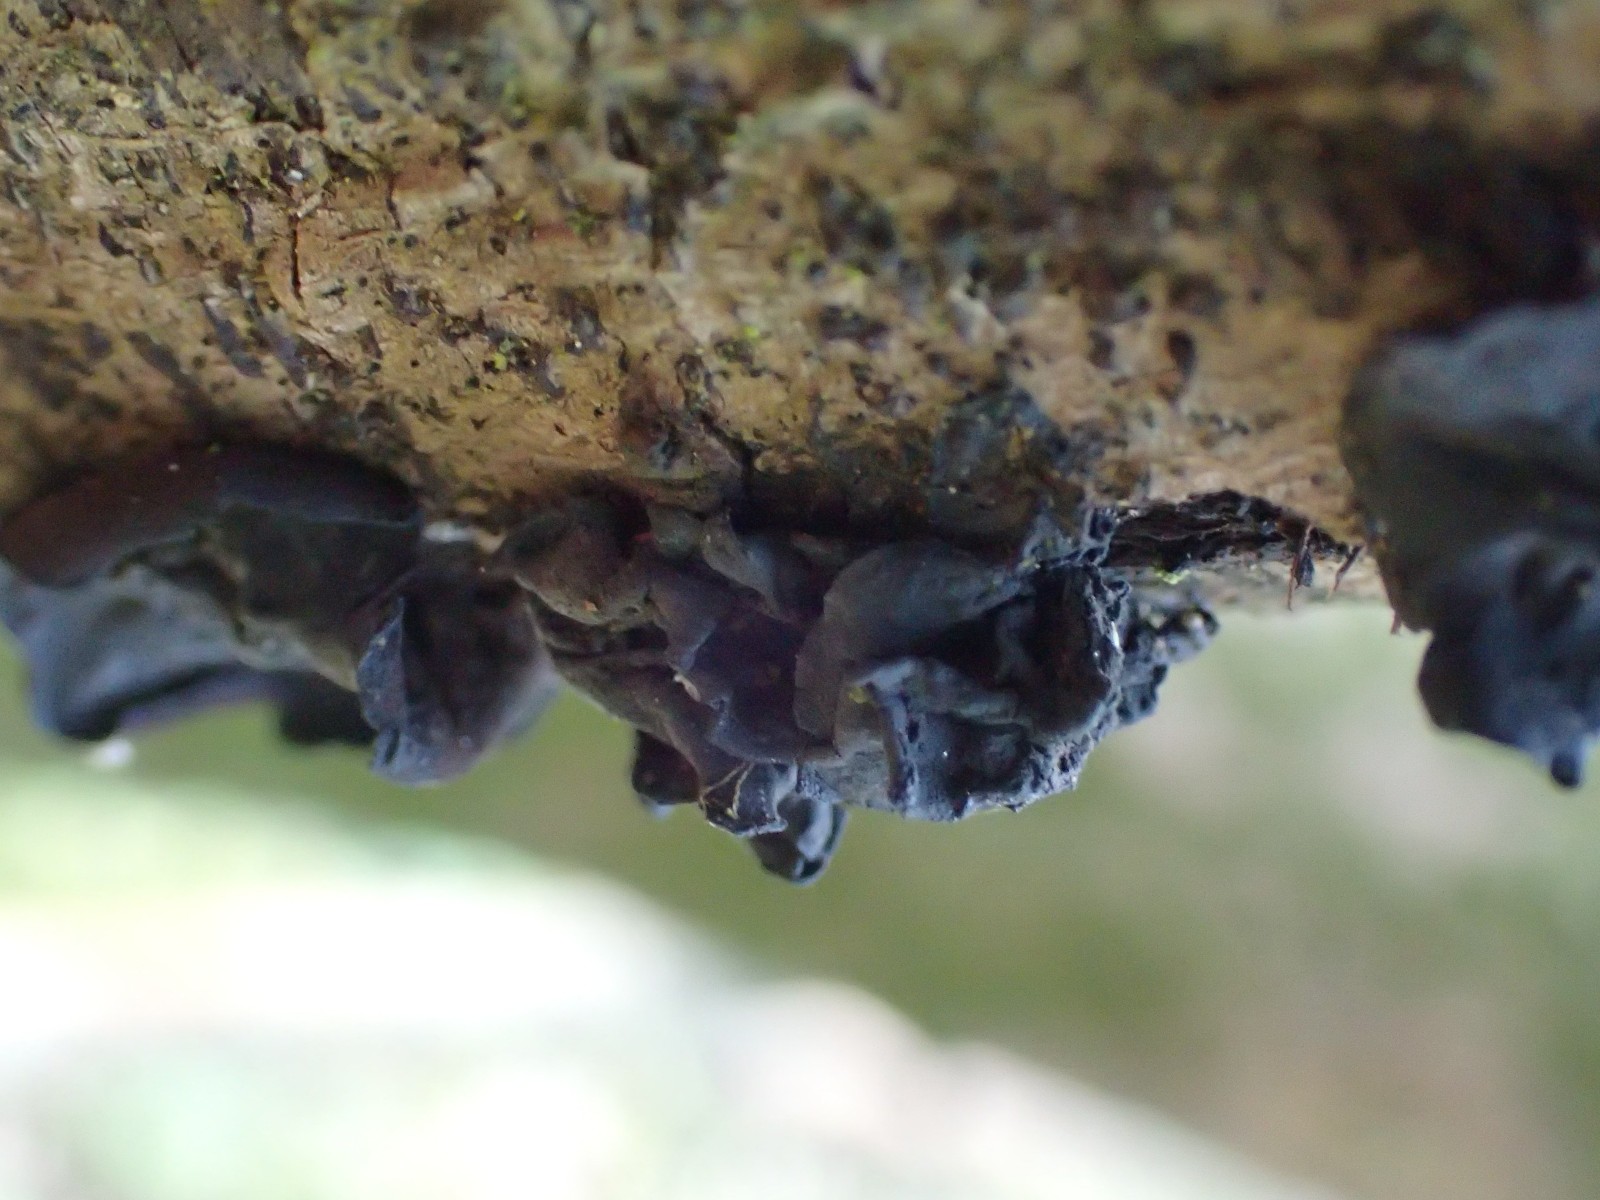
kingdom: Fungi
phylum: Ascomycota
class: Leotiomycetes
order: Helotiales
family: Cordieritidaceae
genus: Ionomidotis
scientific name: Ionomidotis fulvotingens
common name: rødmende tjæreskive
